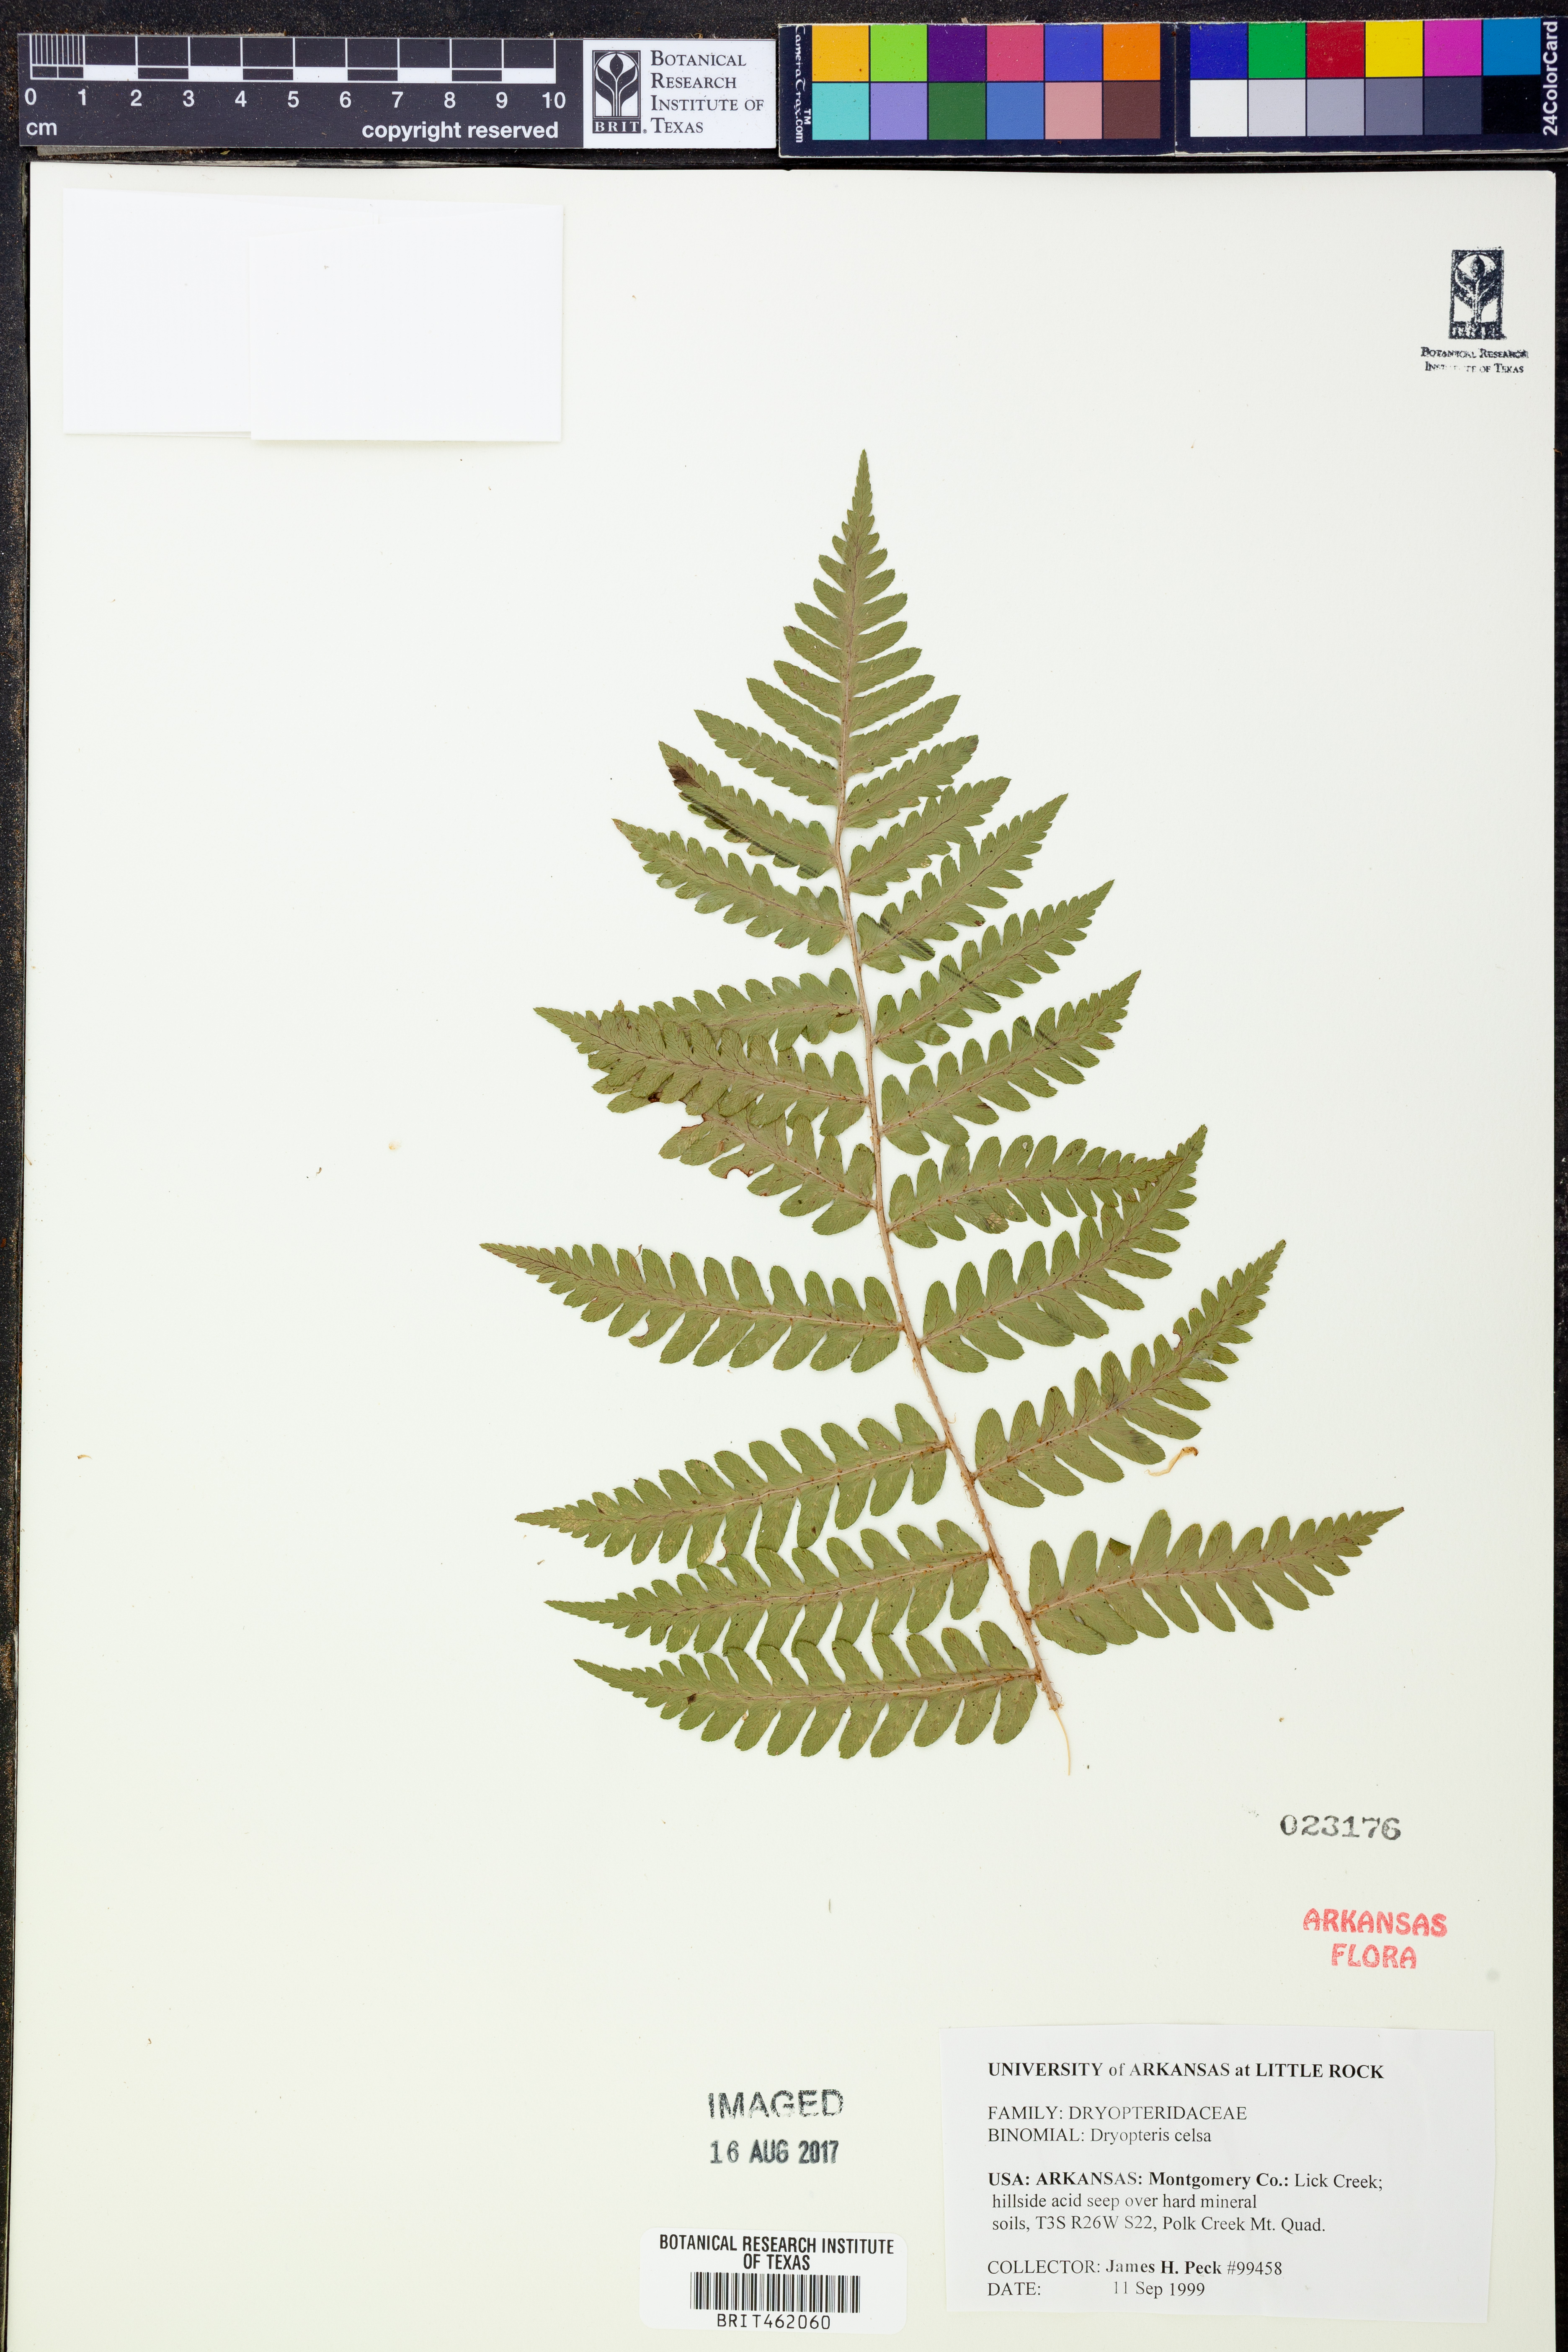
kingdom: Plantae
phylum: Tracheophyta
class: Polypodiopsida
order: Polypodiales
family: Dryopteridaceae
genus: Dryopteris
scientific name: Dryopteris celsa
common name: Log fern
